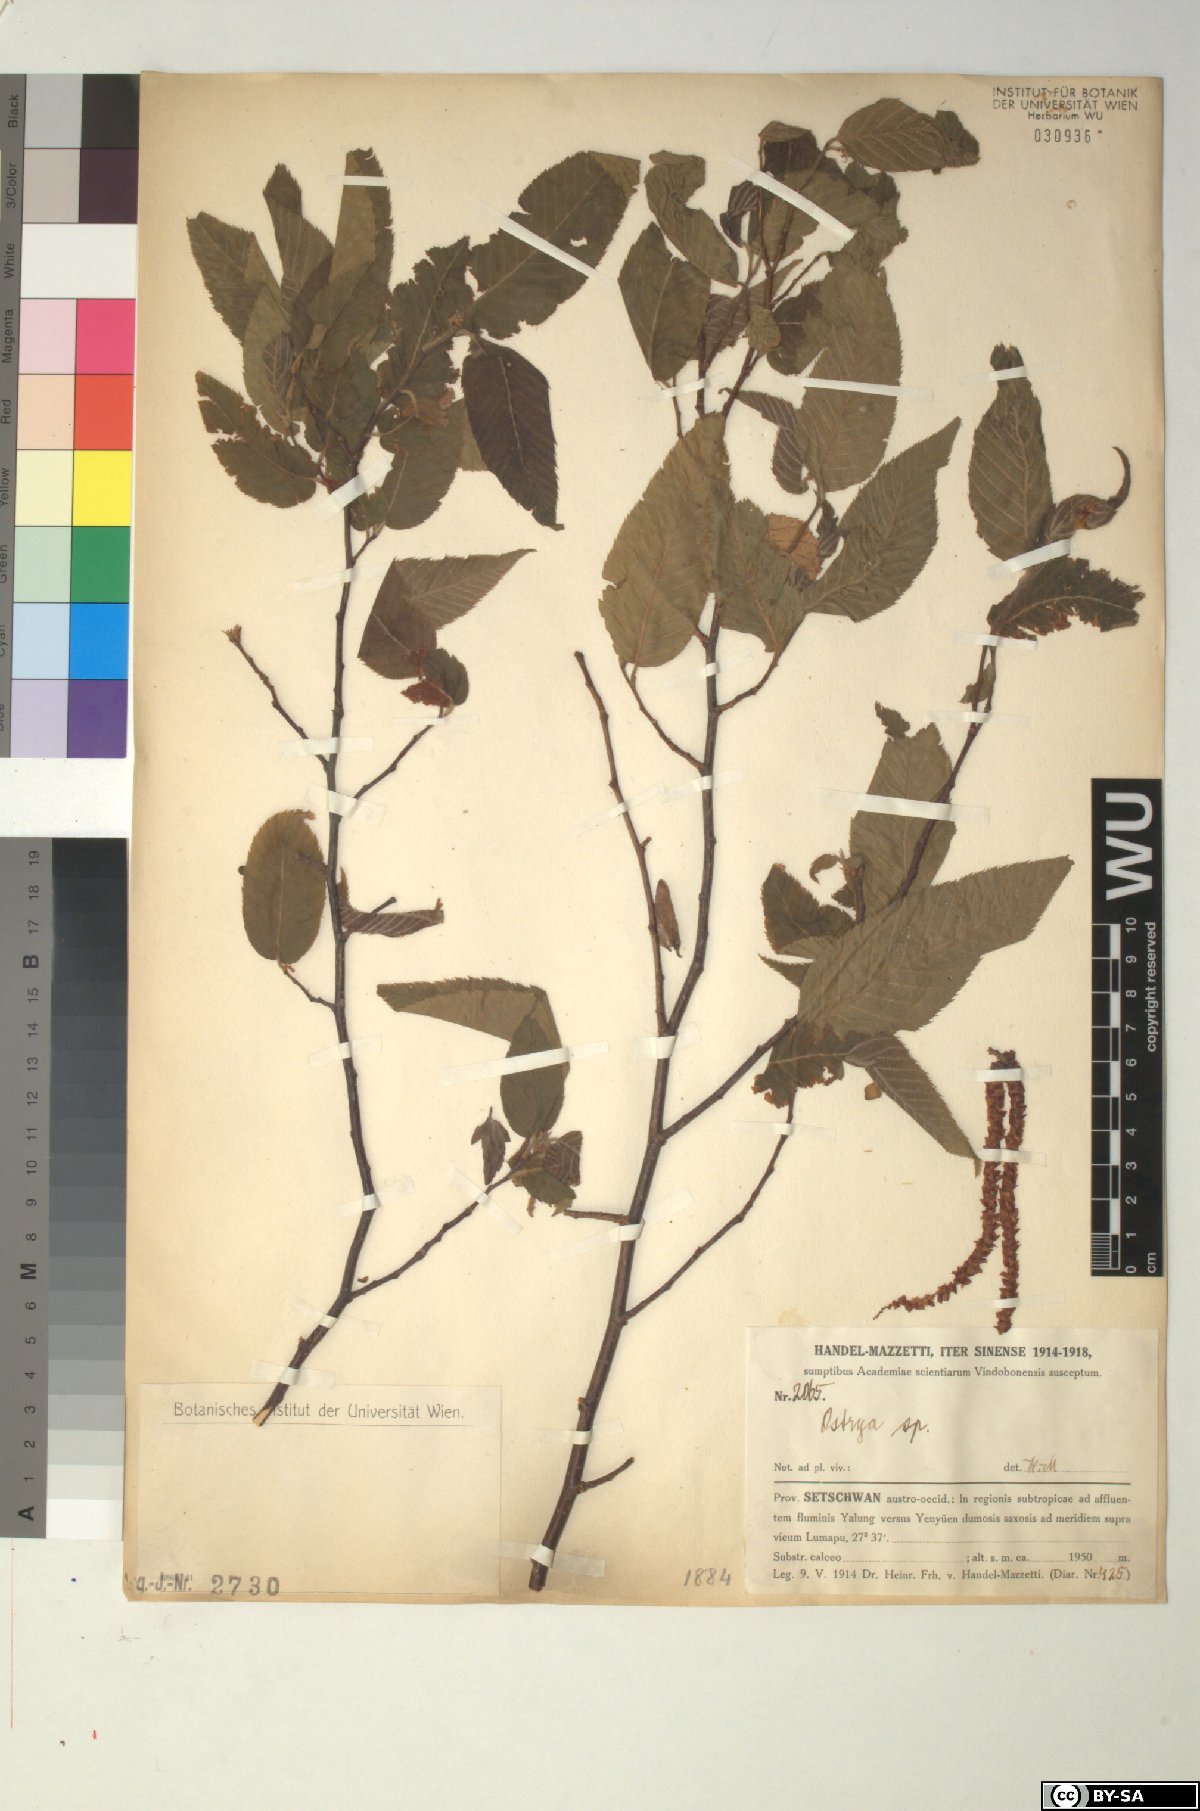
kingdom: Plantae
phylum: Tracheophyta
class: Magnoliopsida
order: Fagales
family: Betulaceae
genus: Ostrya
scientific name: Ostrya
